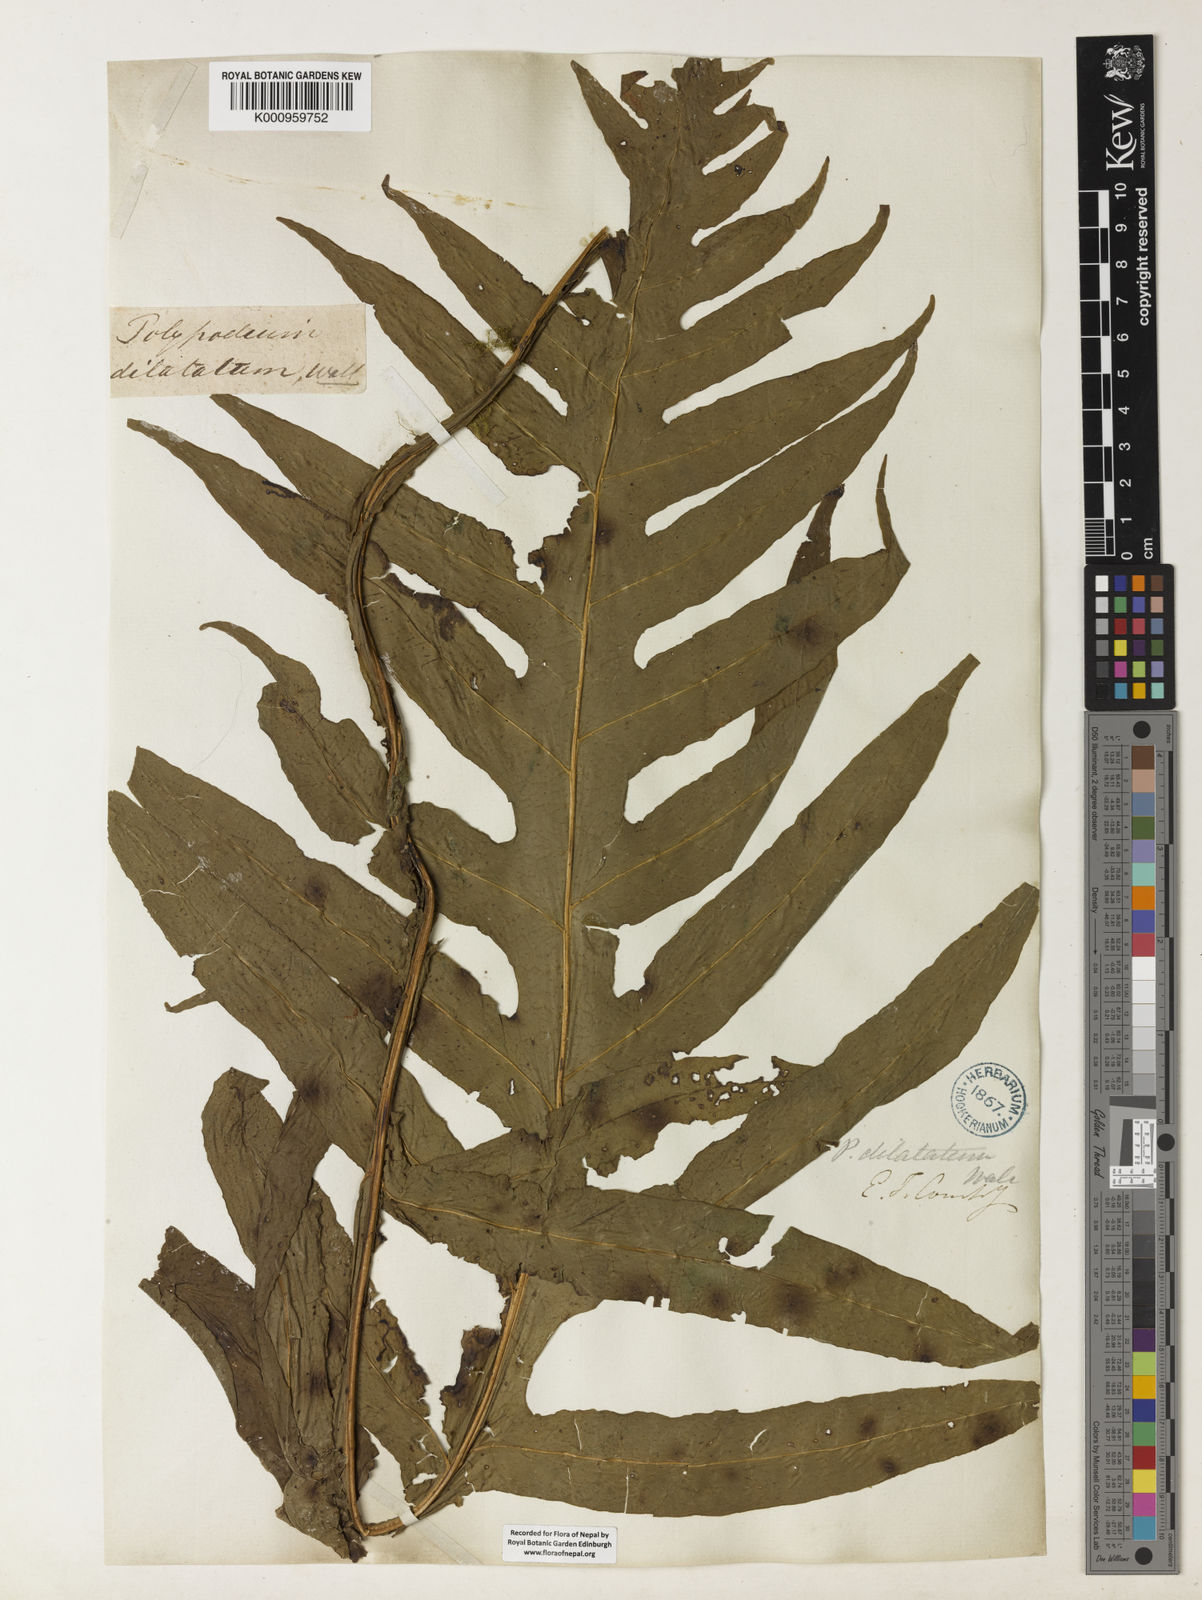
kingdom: Plantae
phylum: Tracheophyta
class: Polypodiopsida
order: Polypodiales
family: Polypodiaceae
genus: Leptochilus
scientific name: Leptochilus insignis
